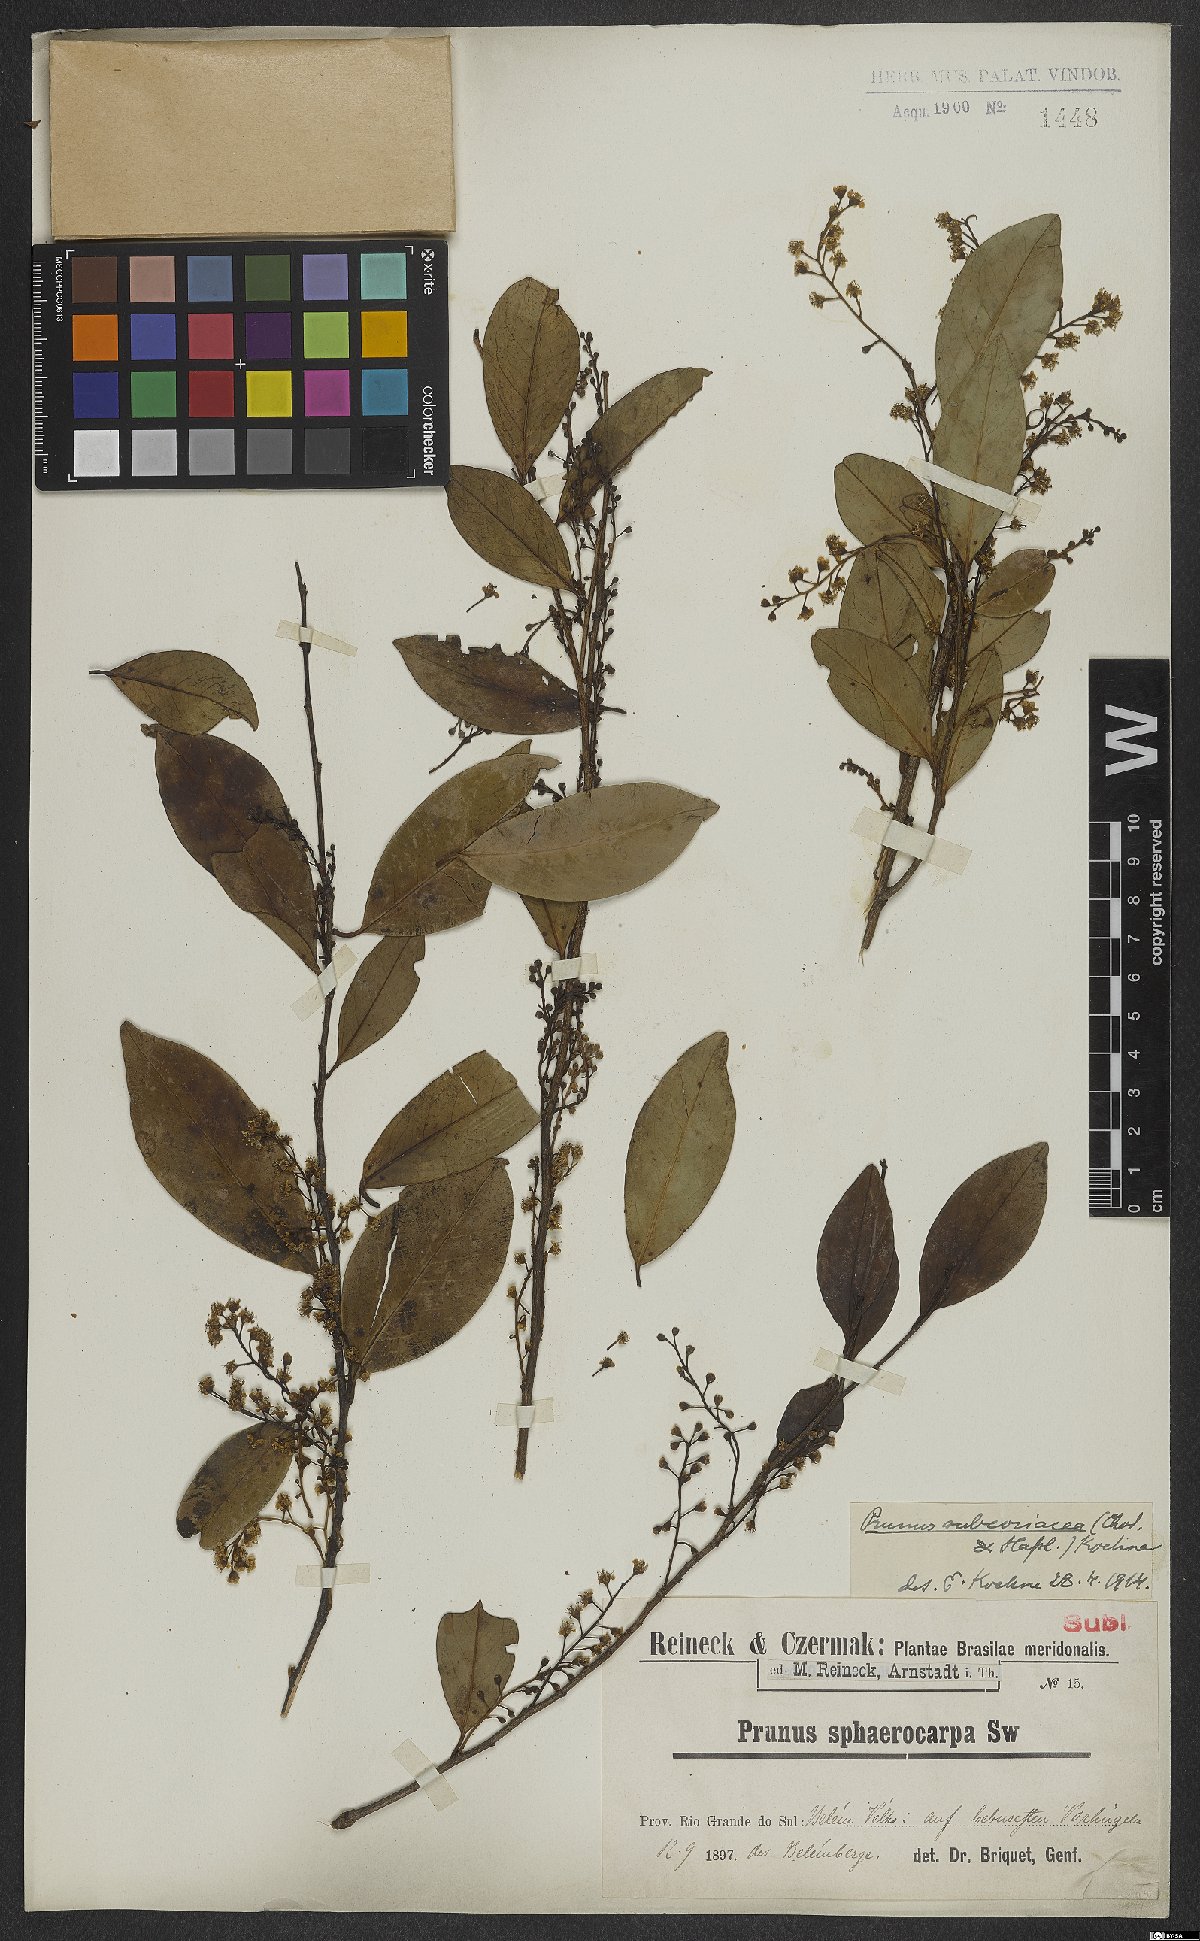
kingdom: Plantae
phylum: Tracheophyta
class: Magnoliopsida
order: Rosales
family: Rosaceae
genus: Prunus
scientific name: Prunus subcoriacea
